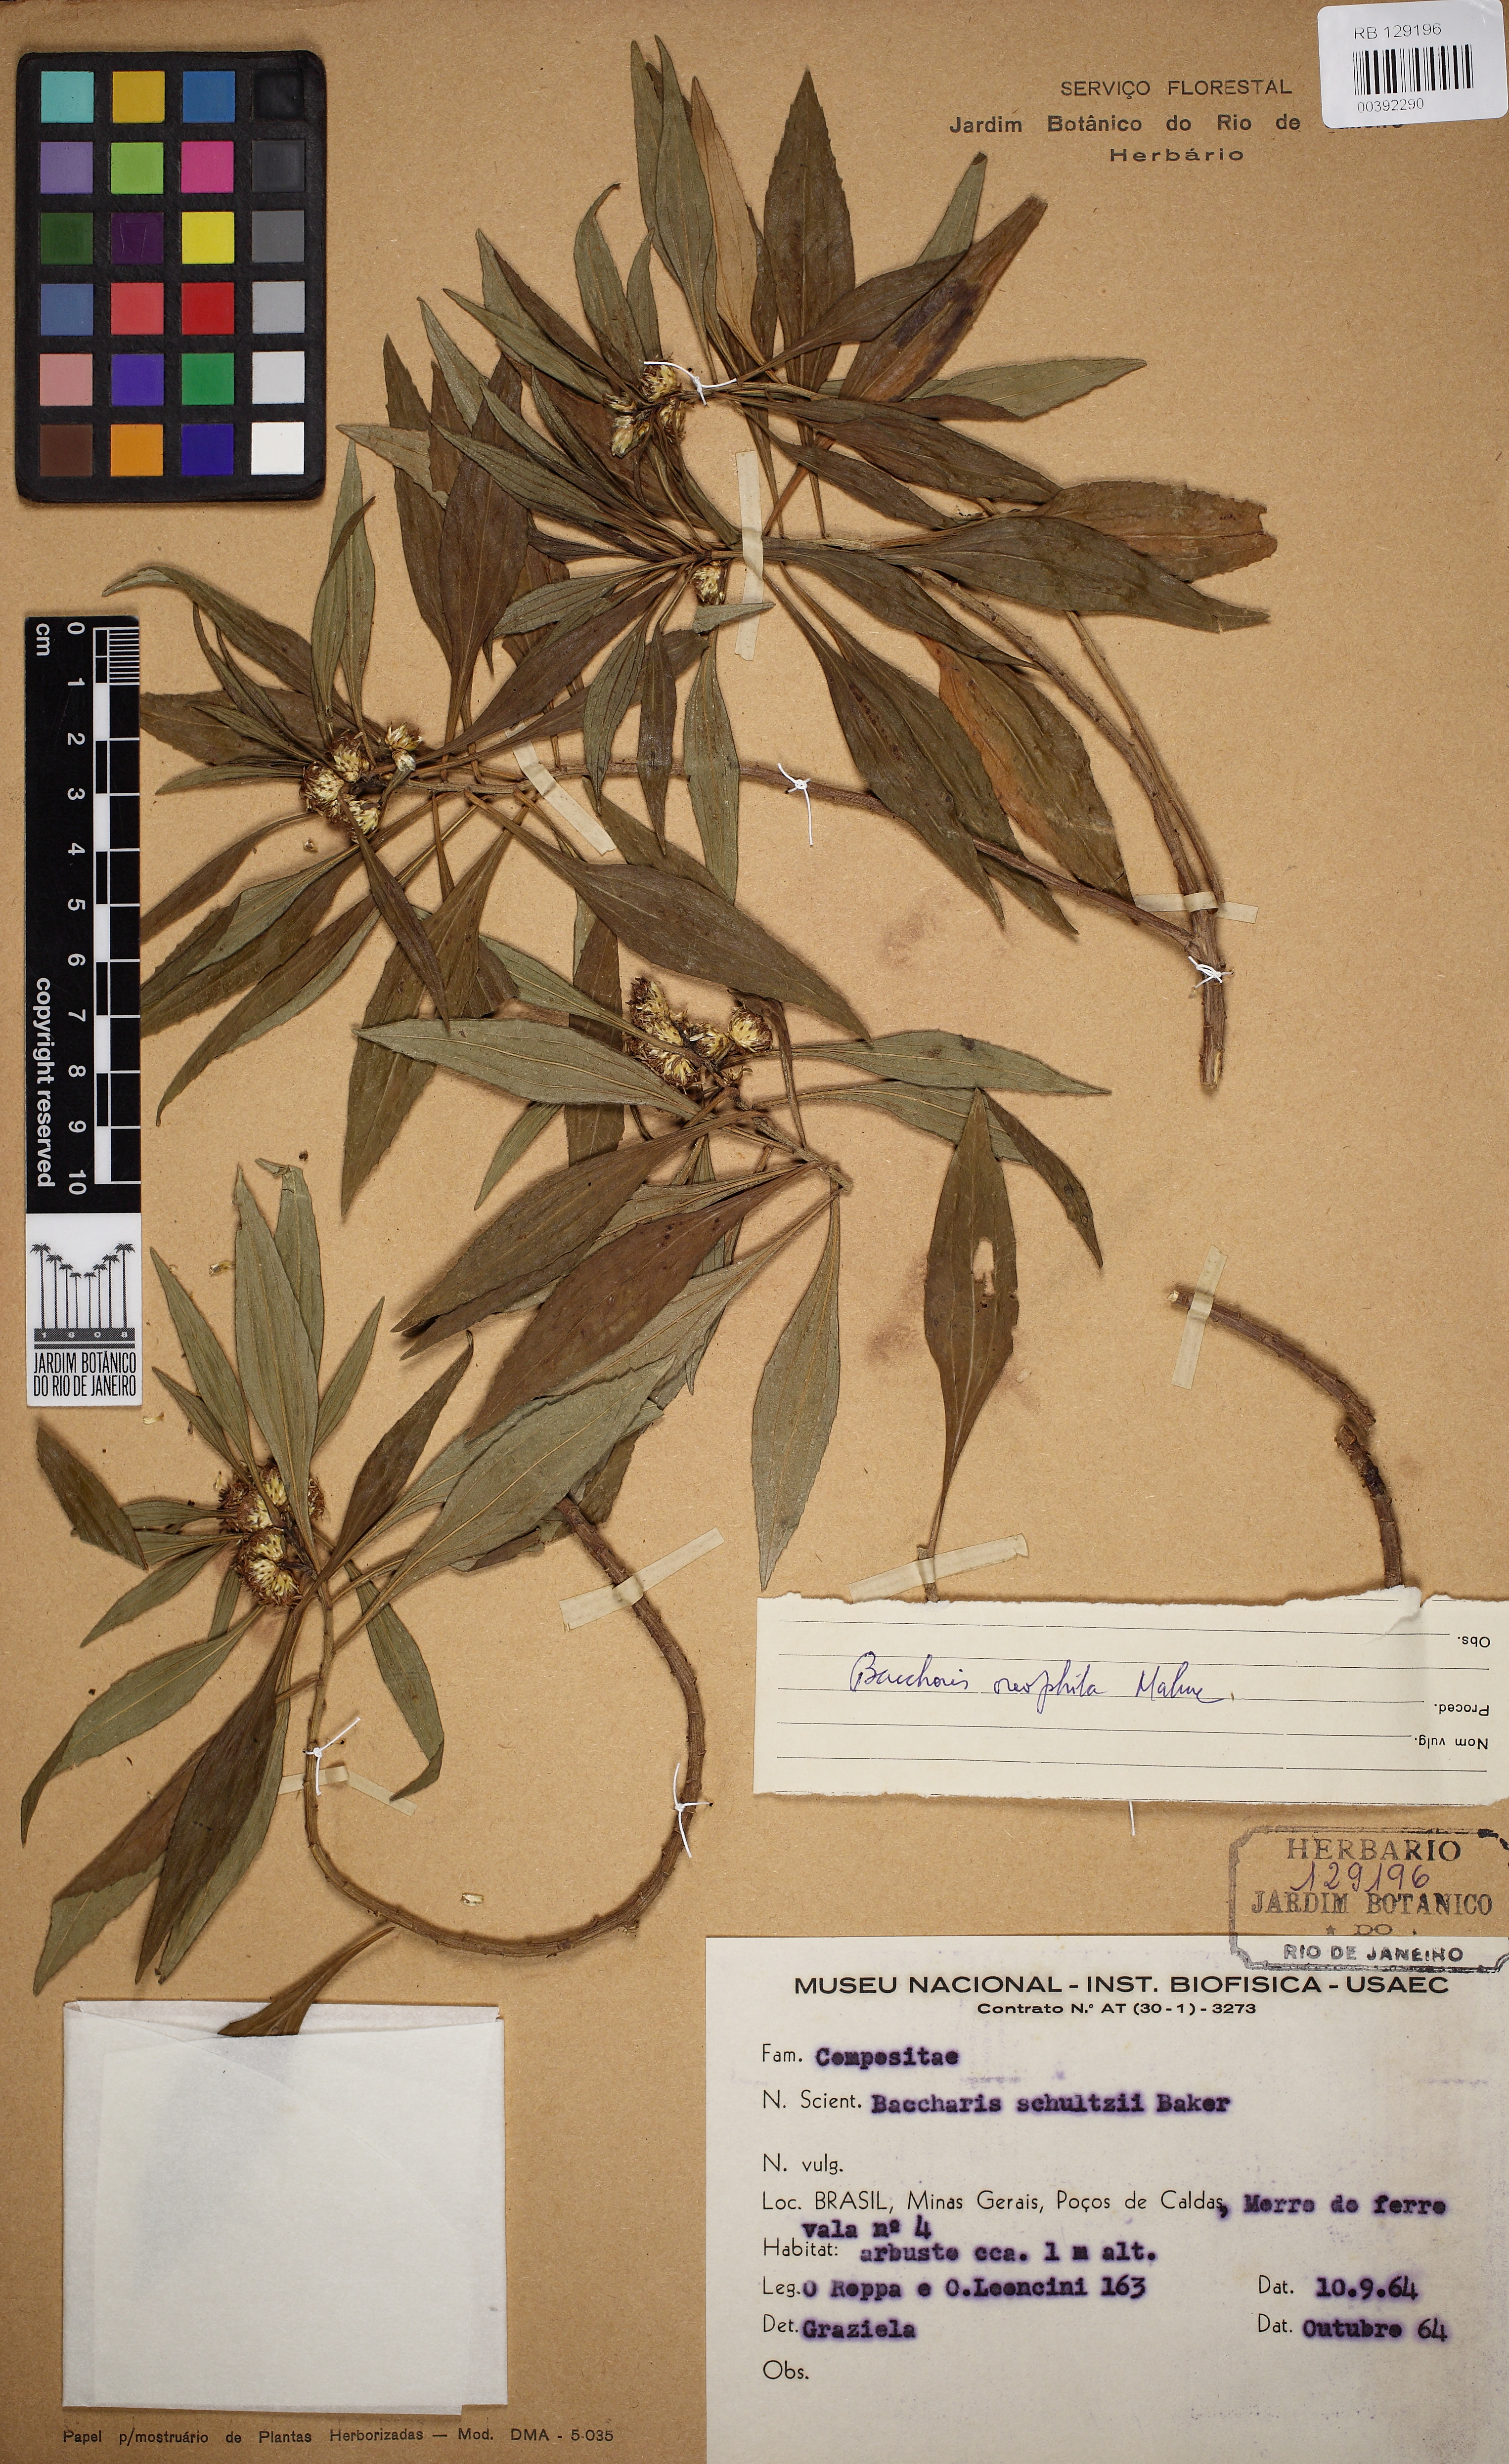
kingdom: Plantae
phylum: Tracheophyta
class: Magnoliopsida
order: Asterales
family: Asteraceae
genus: Baccharis
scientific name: Baccharis oreophila
